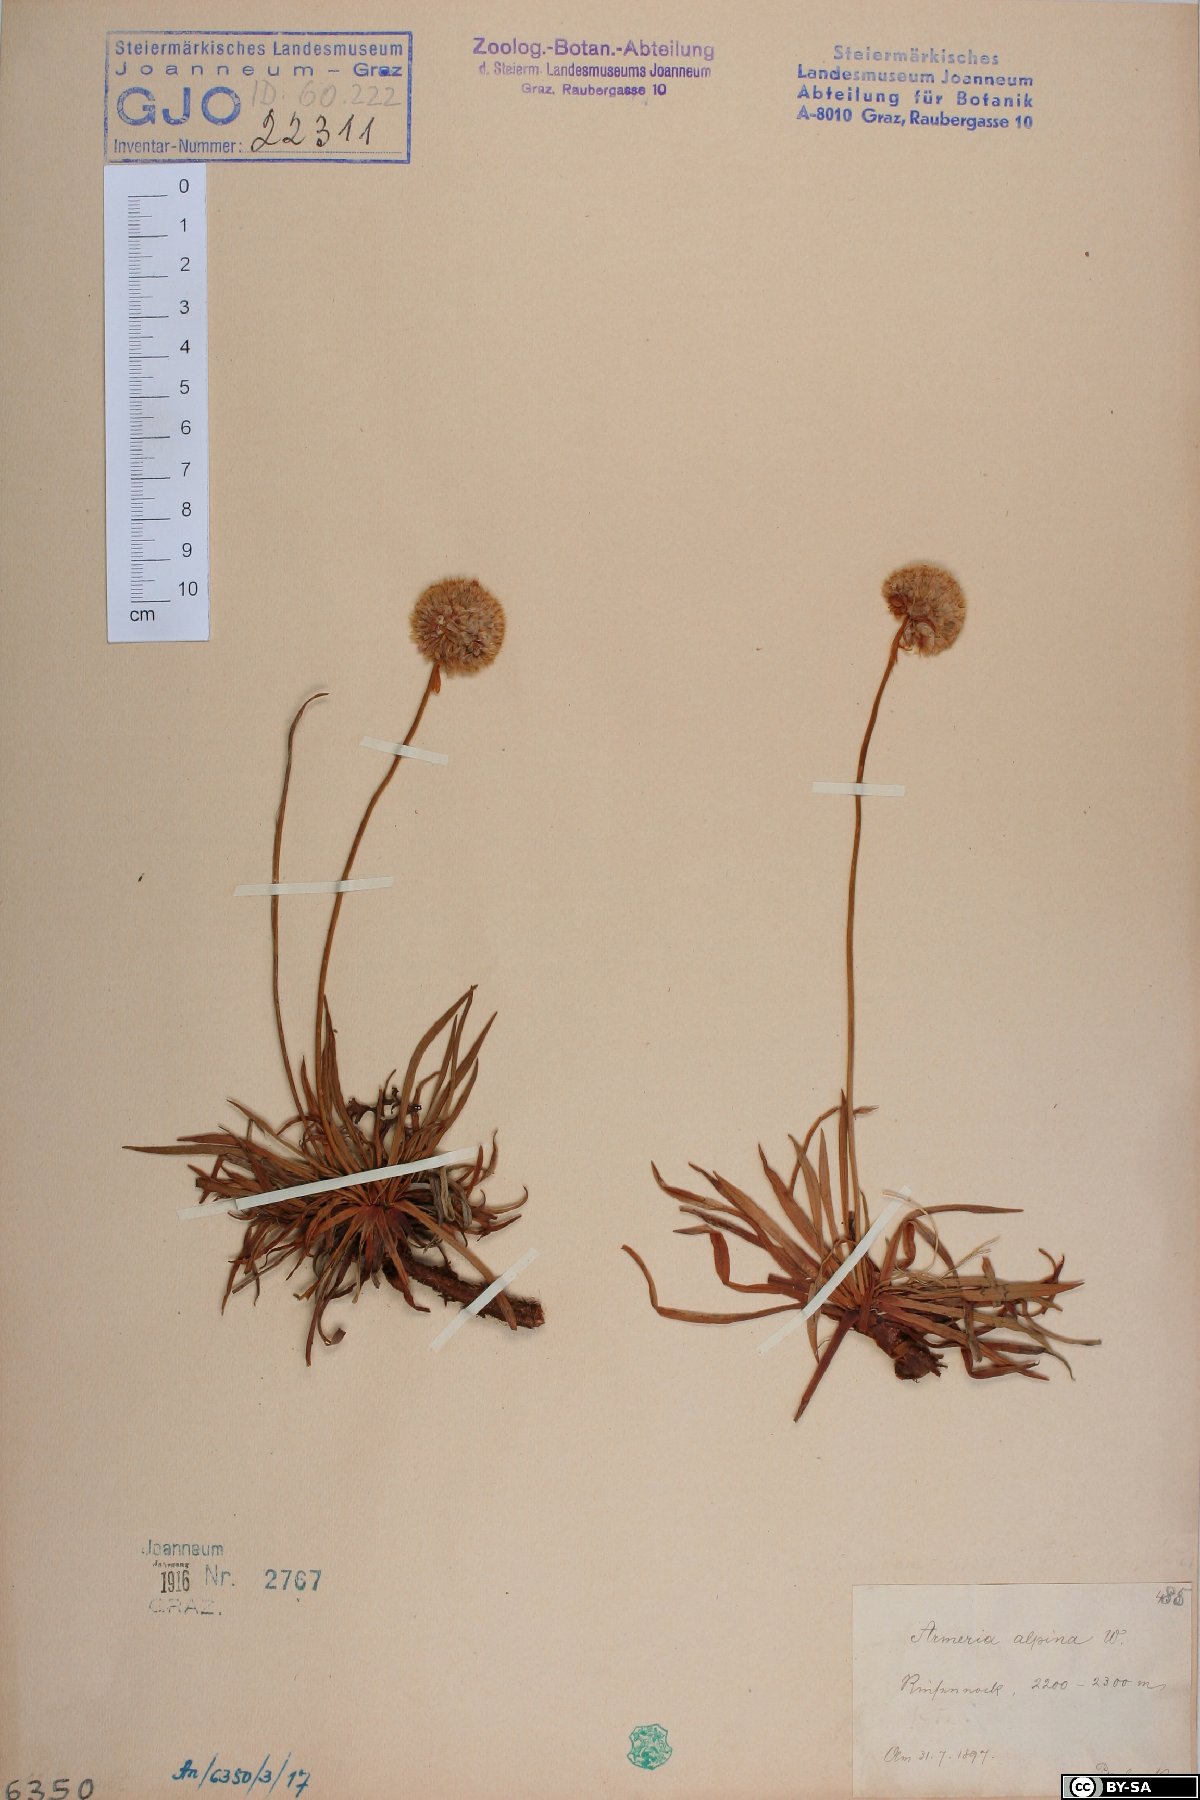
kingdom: Plantae
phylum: Tracheophyta
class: Magnoliopsida
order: Caryophyllales
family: Plumbaginaceae
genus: Armeria
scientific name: Armeria alpina
